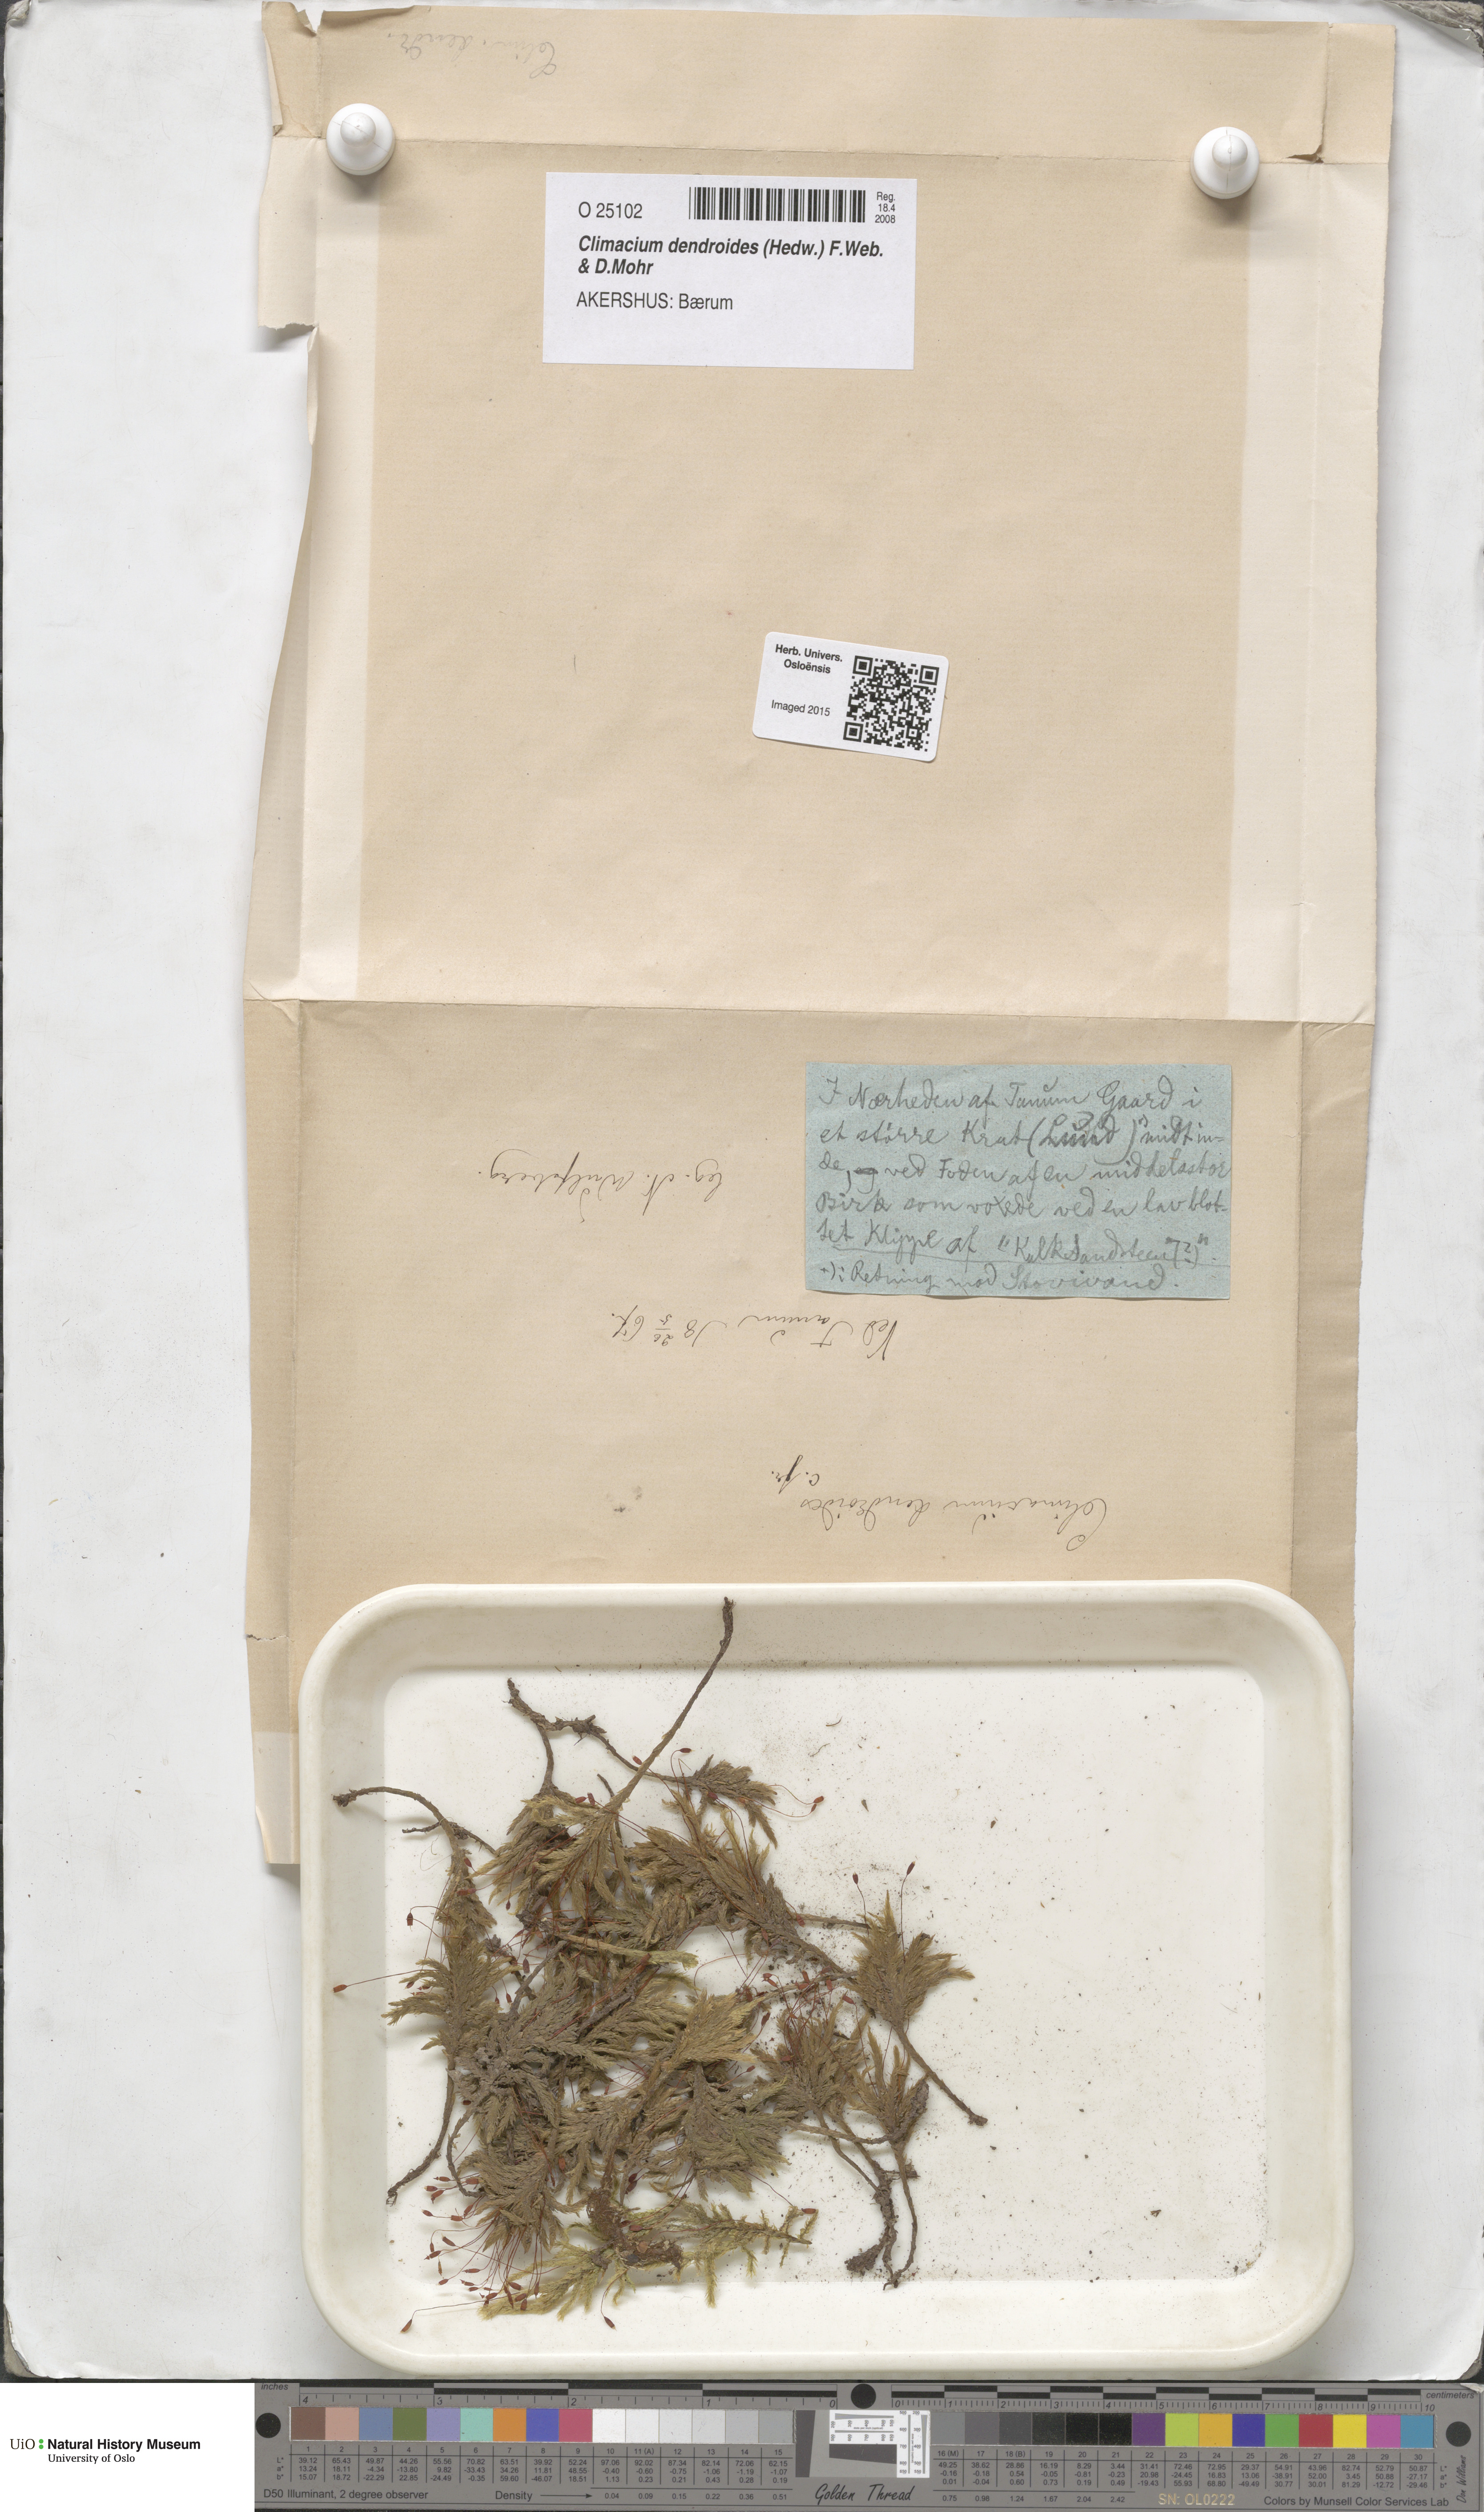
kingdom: Plantae
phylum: Bryophyta
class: Bryopsida
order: Hypnales
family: Climaciaceae
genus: Climacium
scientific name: Climacium dendroides
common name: Northern tree moss
